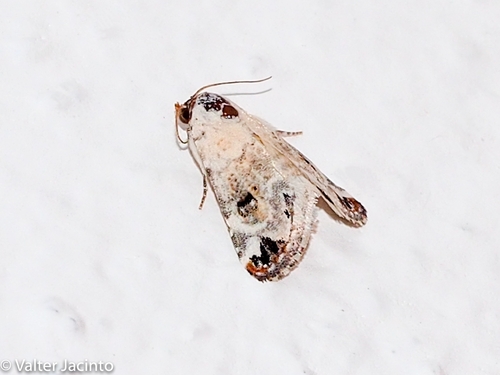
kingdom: Animalia
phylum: Arthropoda
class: Insecta
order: Lepidoptera
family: Noctuidae
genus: Eublemma
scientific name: Eublemma scitula
